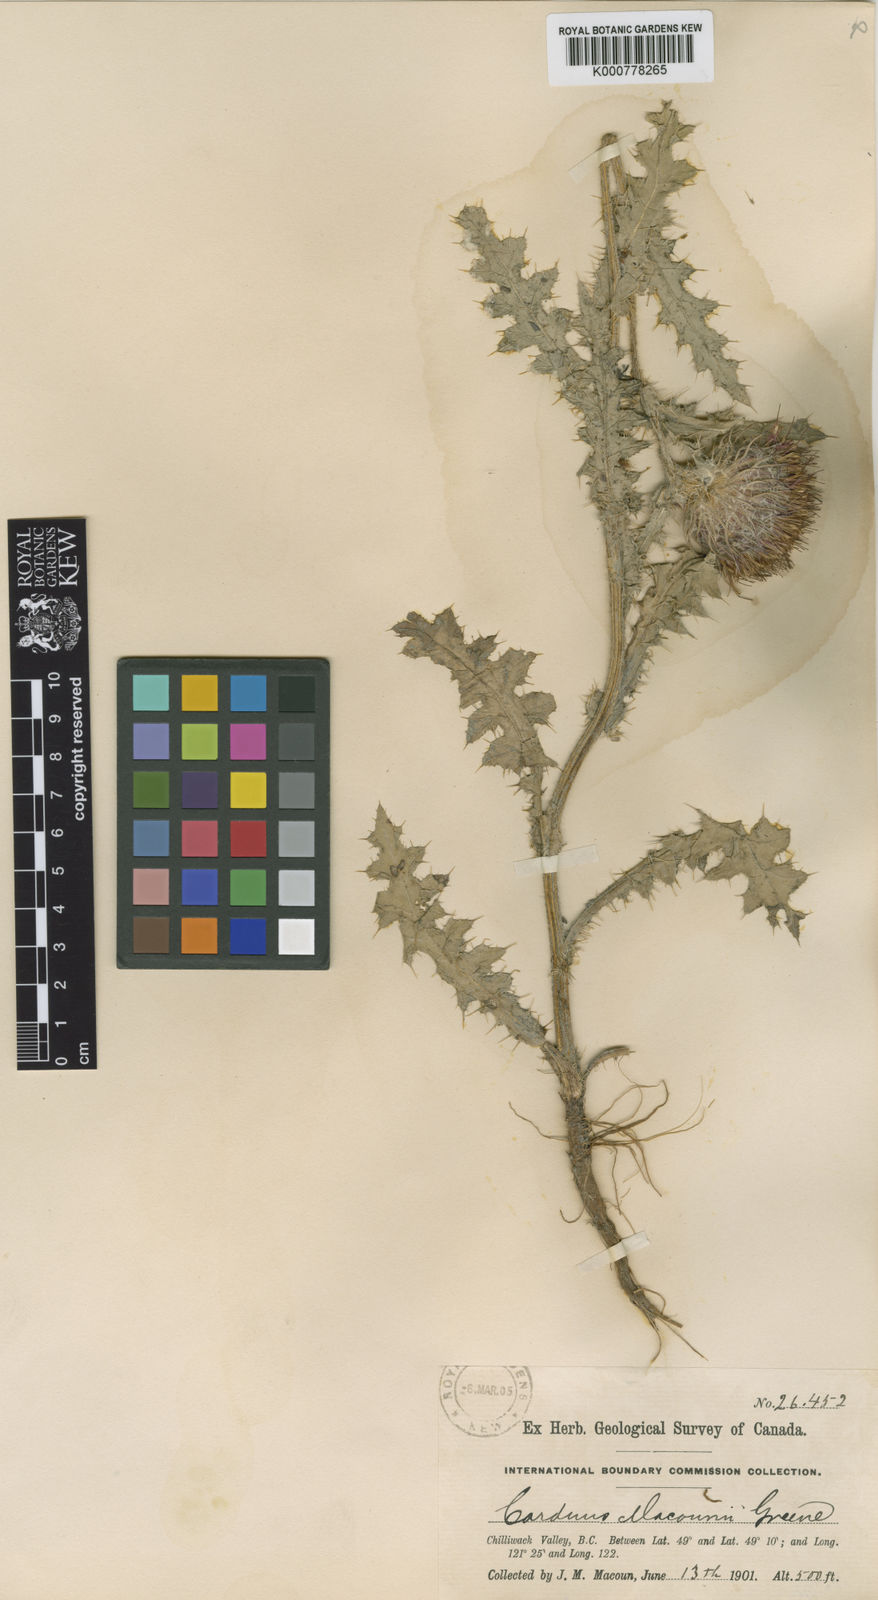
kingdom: Plantae
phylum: Tracheophyta
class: Magnoliopsida
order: Asterales
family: Asteraceae
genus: Cirsium
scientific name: Cirsium
